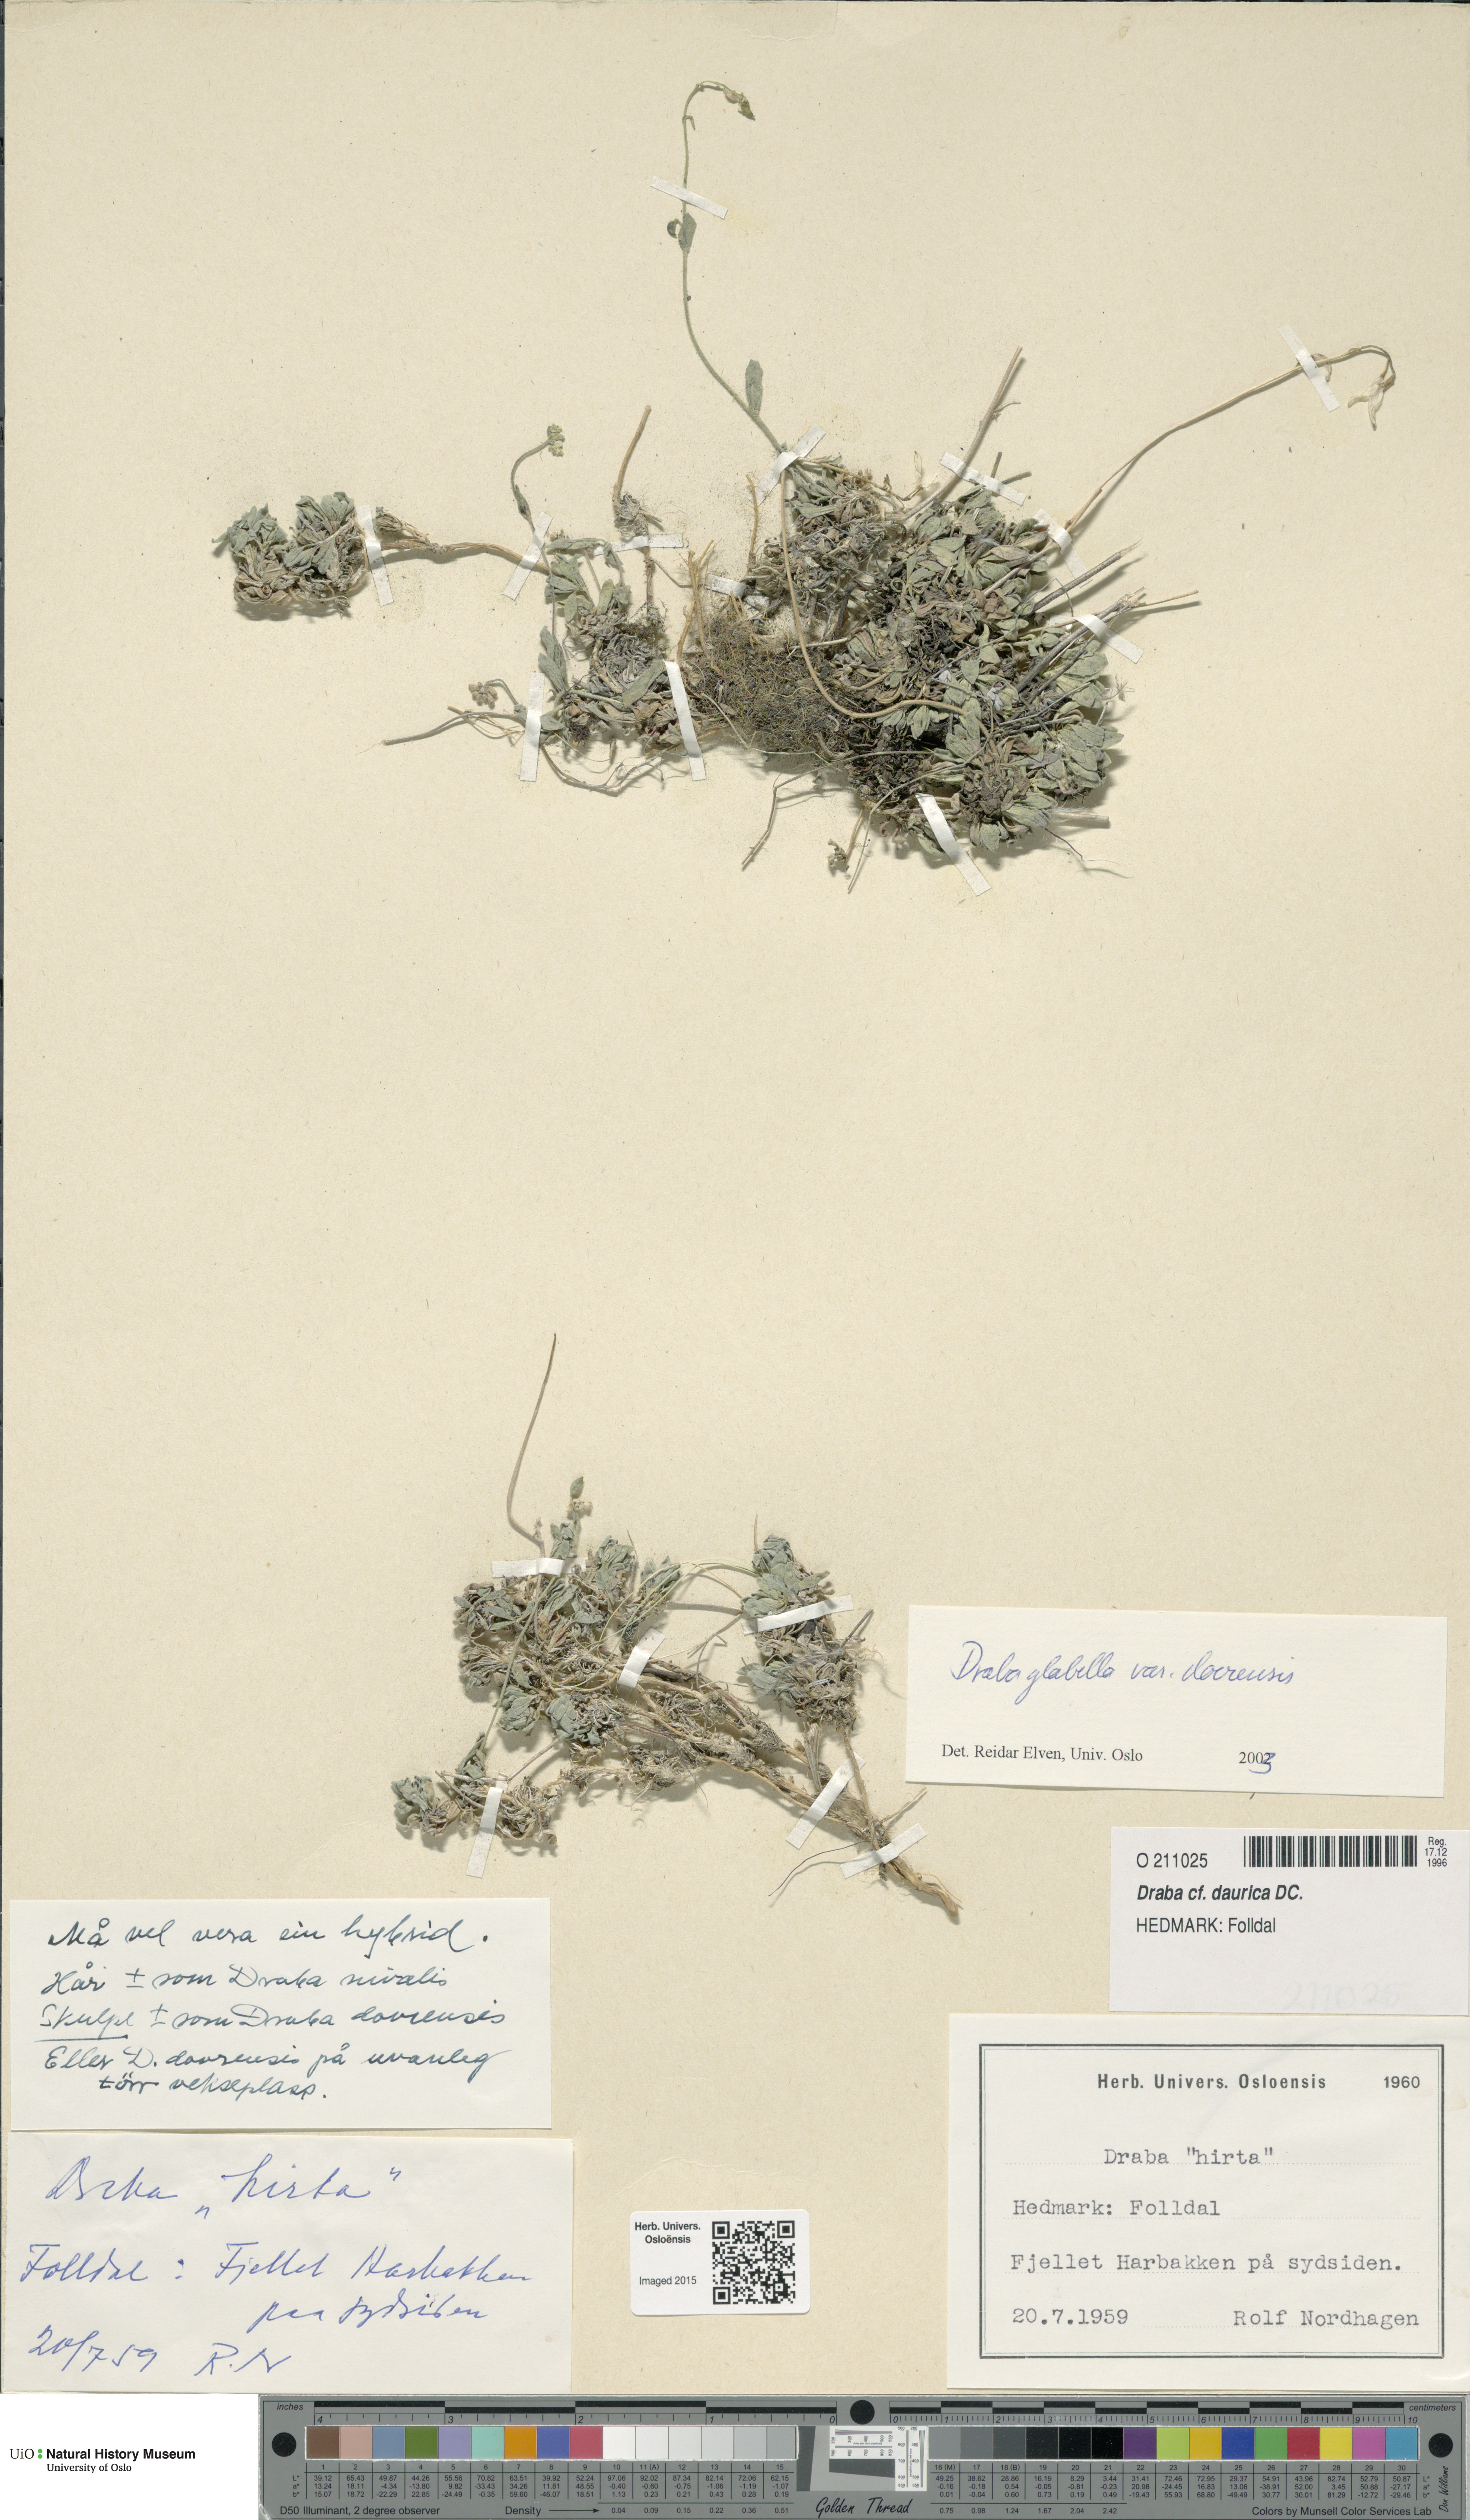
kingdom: Plantae
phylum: Tracheophyta
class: Magnoliopsida
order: Brassicales
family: Brassicaceae
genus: Draba
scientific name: Draba glabella
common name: Glaucous draba
